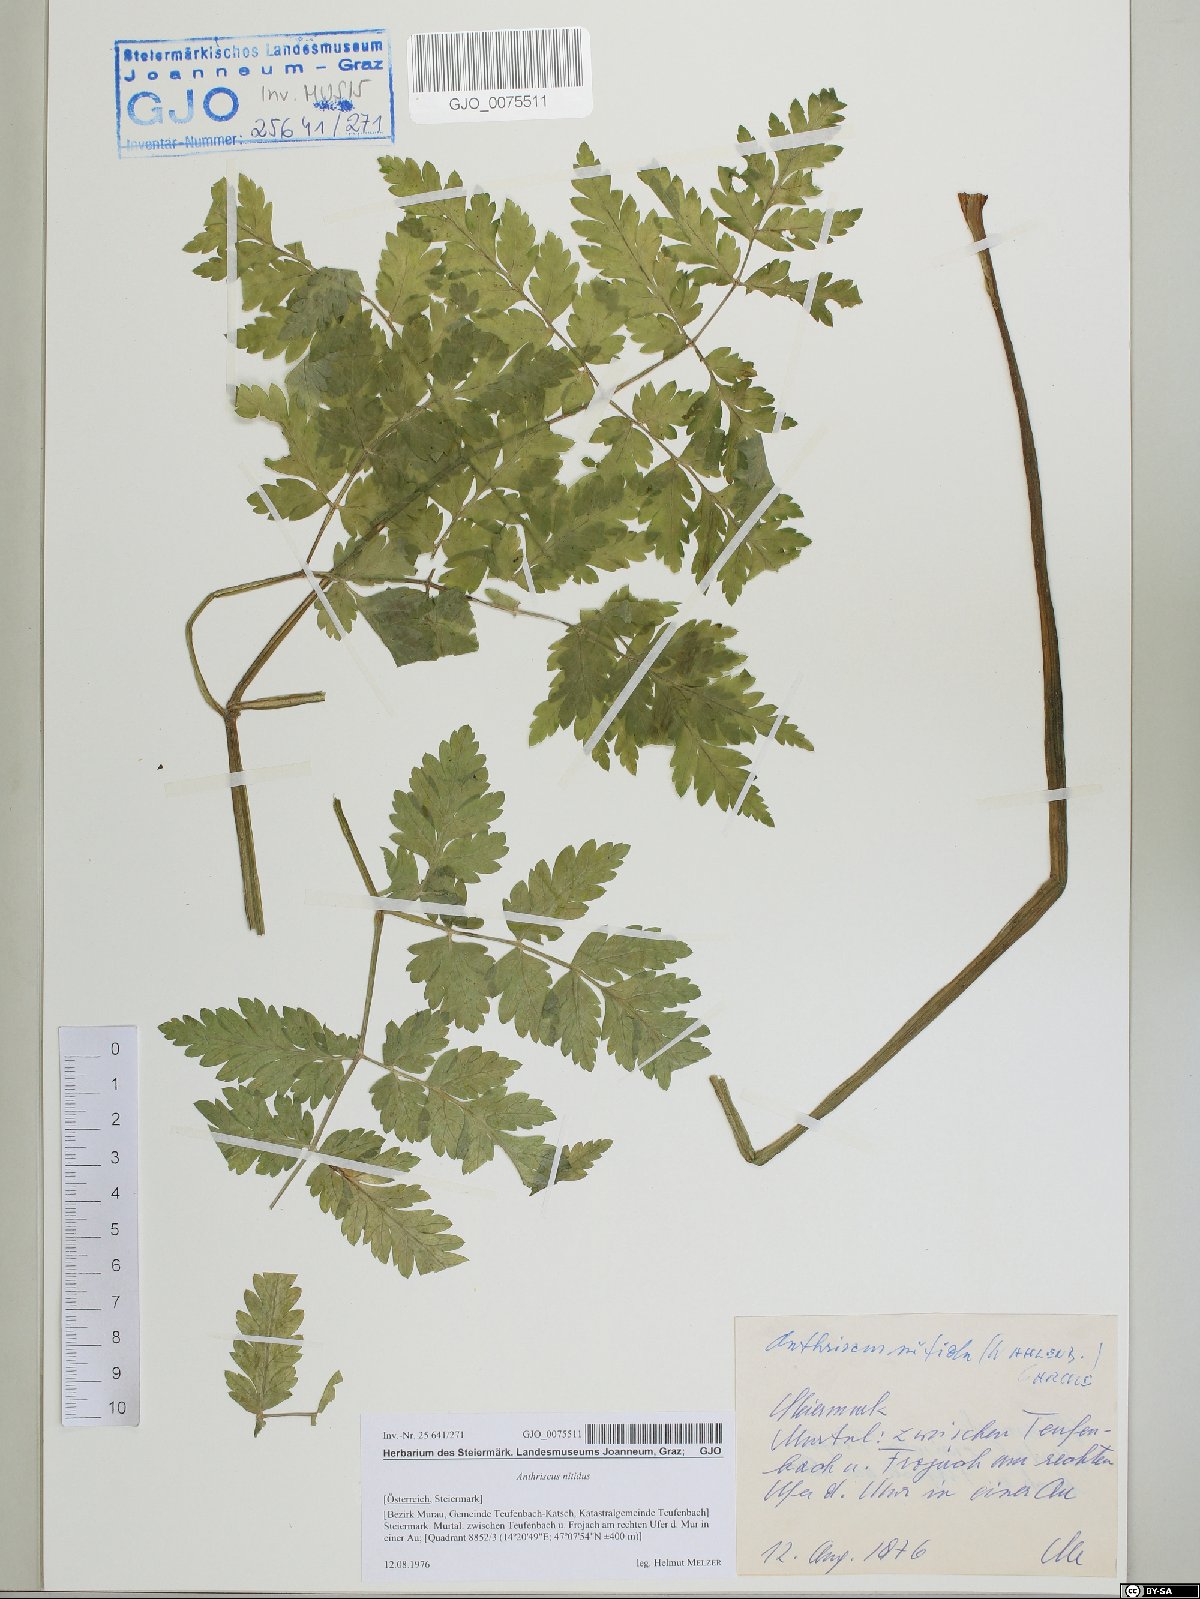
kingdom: Plantae
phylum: Tracheophyta
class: Magnoliopsida
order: Apiales
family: Apiaceae
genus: Anthriscus
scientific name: Anthriscus nitida
